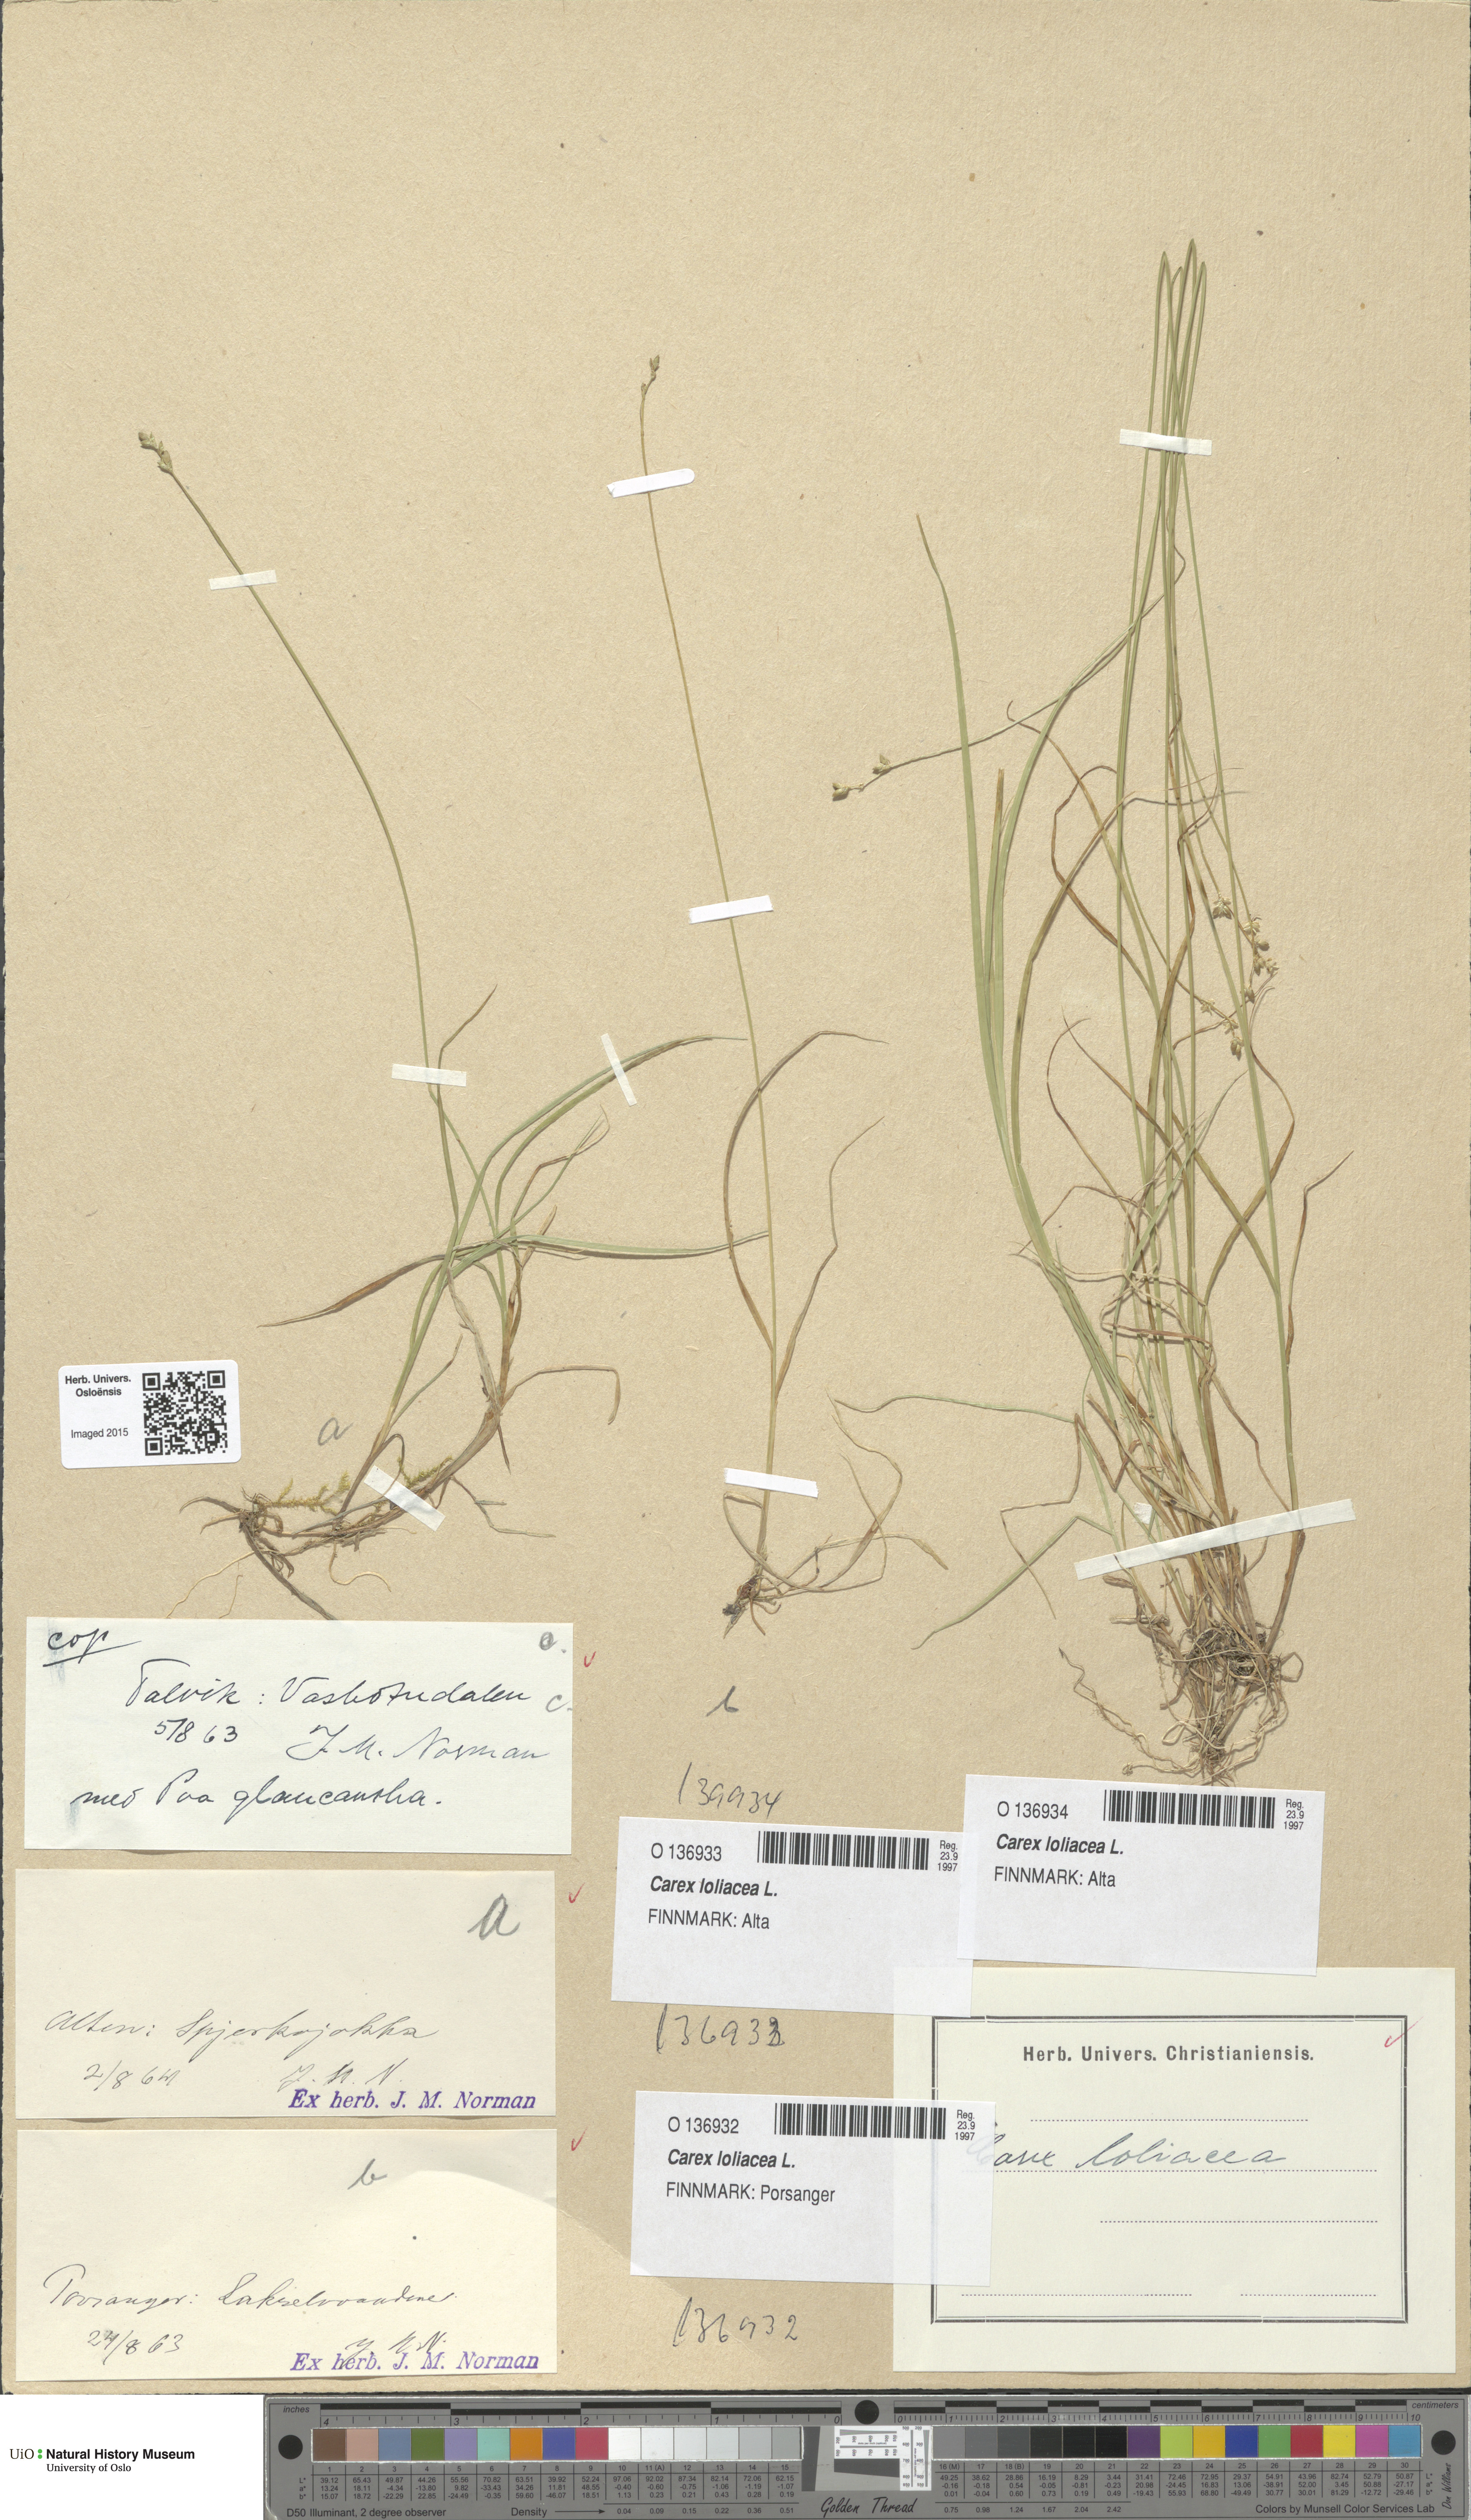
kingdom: Plantae
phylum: Tracheophyta
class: Liliopsida
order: Poales
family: Cyperaceae
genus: Carex
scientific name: Carex loliacea
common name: Ryegrass sedge
